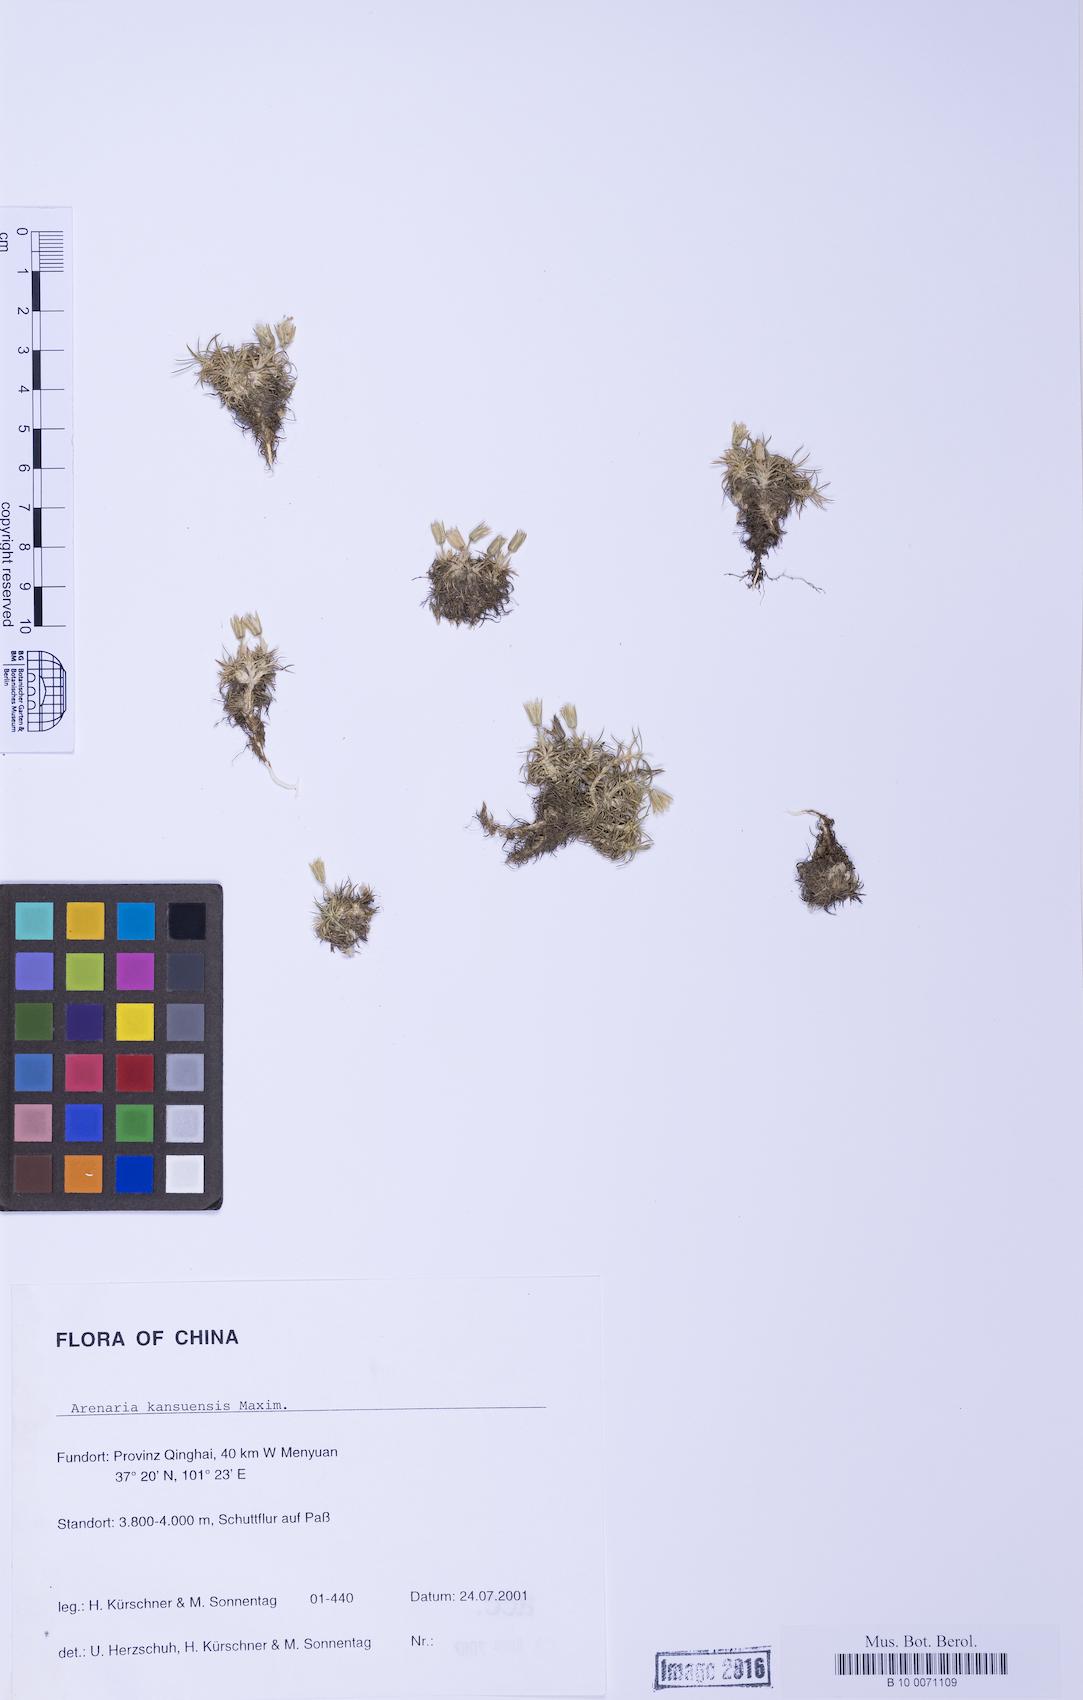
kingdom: Plantae
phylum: Tracheophyta
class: Magnoliopsida
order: Caryophyllales
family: Caryophyllaceae
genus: Eremogone
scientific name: Eremogone kansuensis
